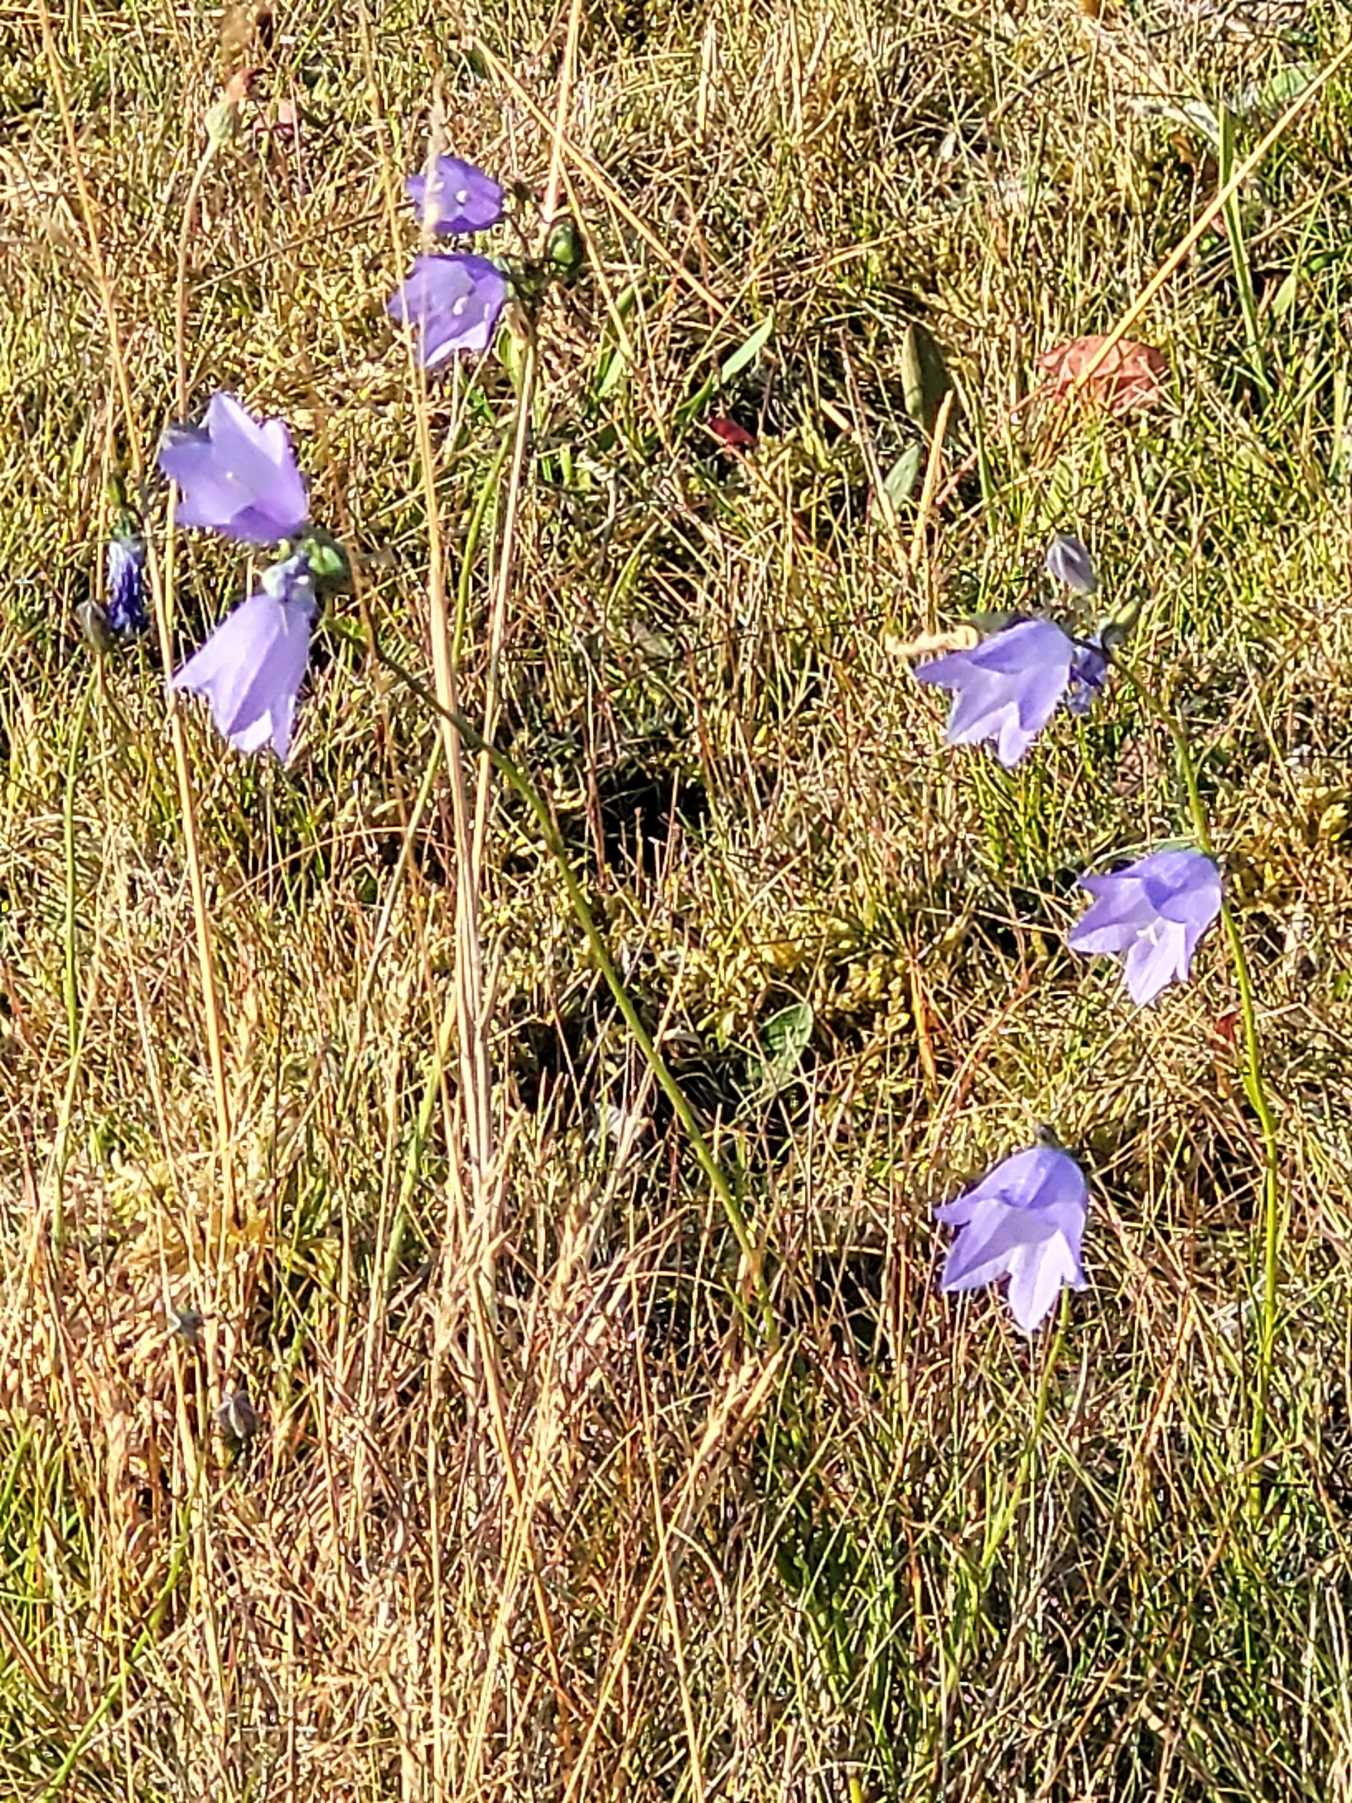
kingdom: Plantae
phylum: Tracheophyta
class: Magnoliopsida
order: Asterales
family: Campanulaceae
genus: Campanula
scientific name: Campanula rotundifolia
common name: Liden klokke
